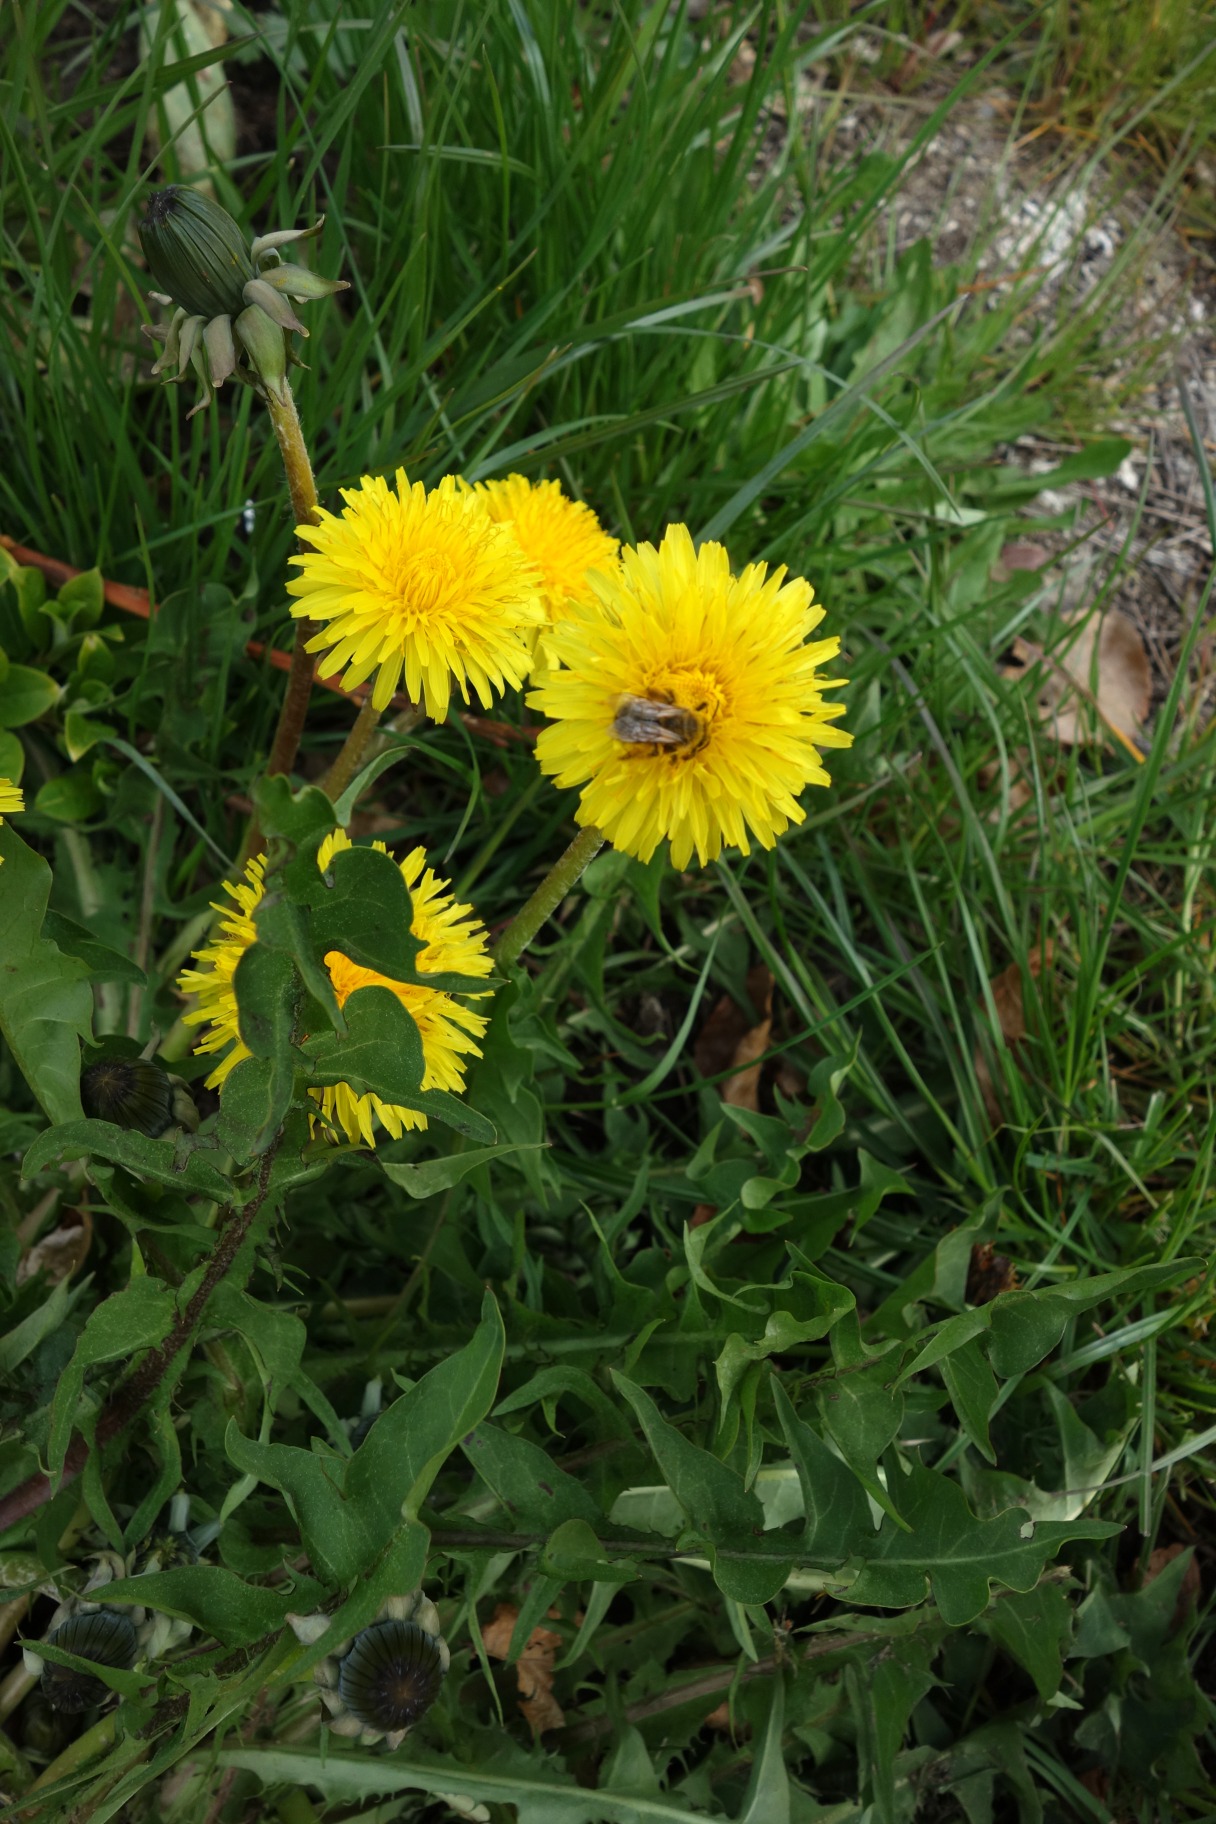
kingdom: Plantae
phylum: Tracheophyta
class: Magnoliopsida
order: Asterales
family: Asteraceae
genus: Taraxacum
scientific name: Taraxacum
